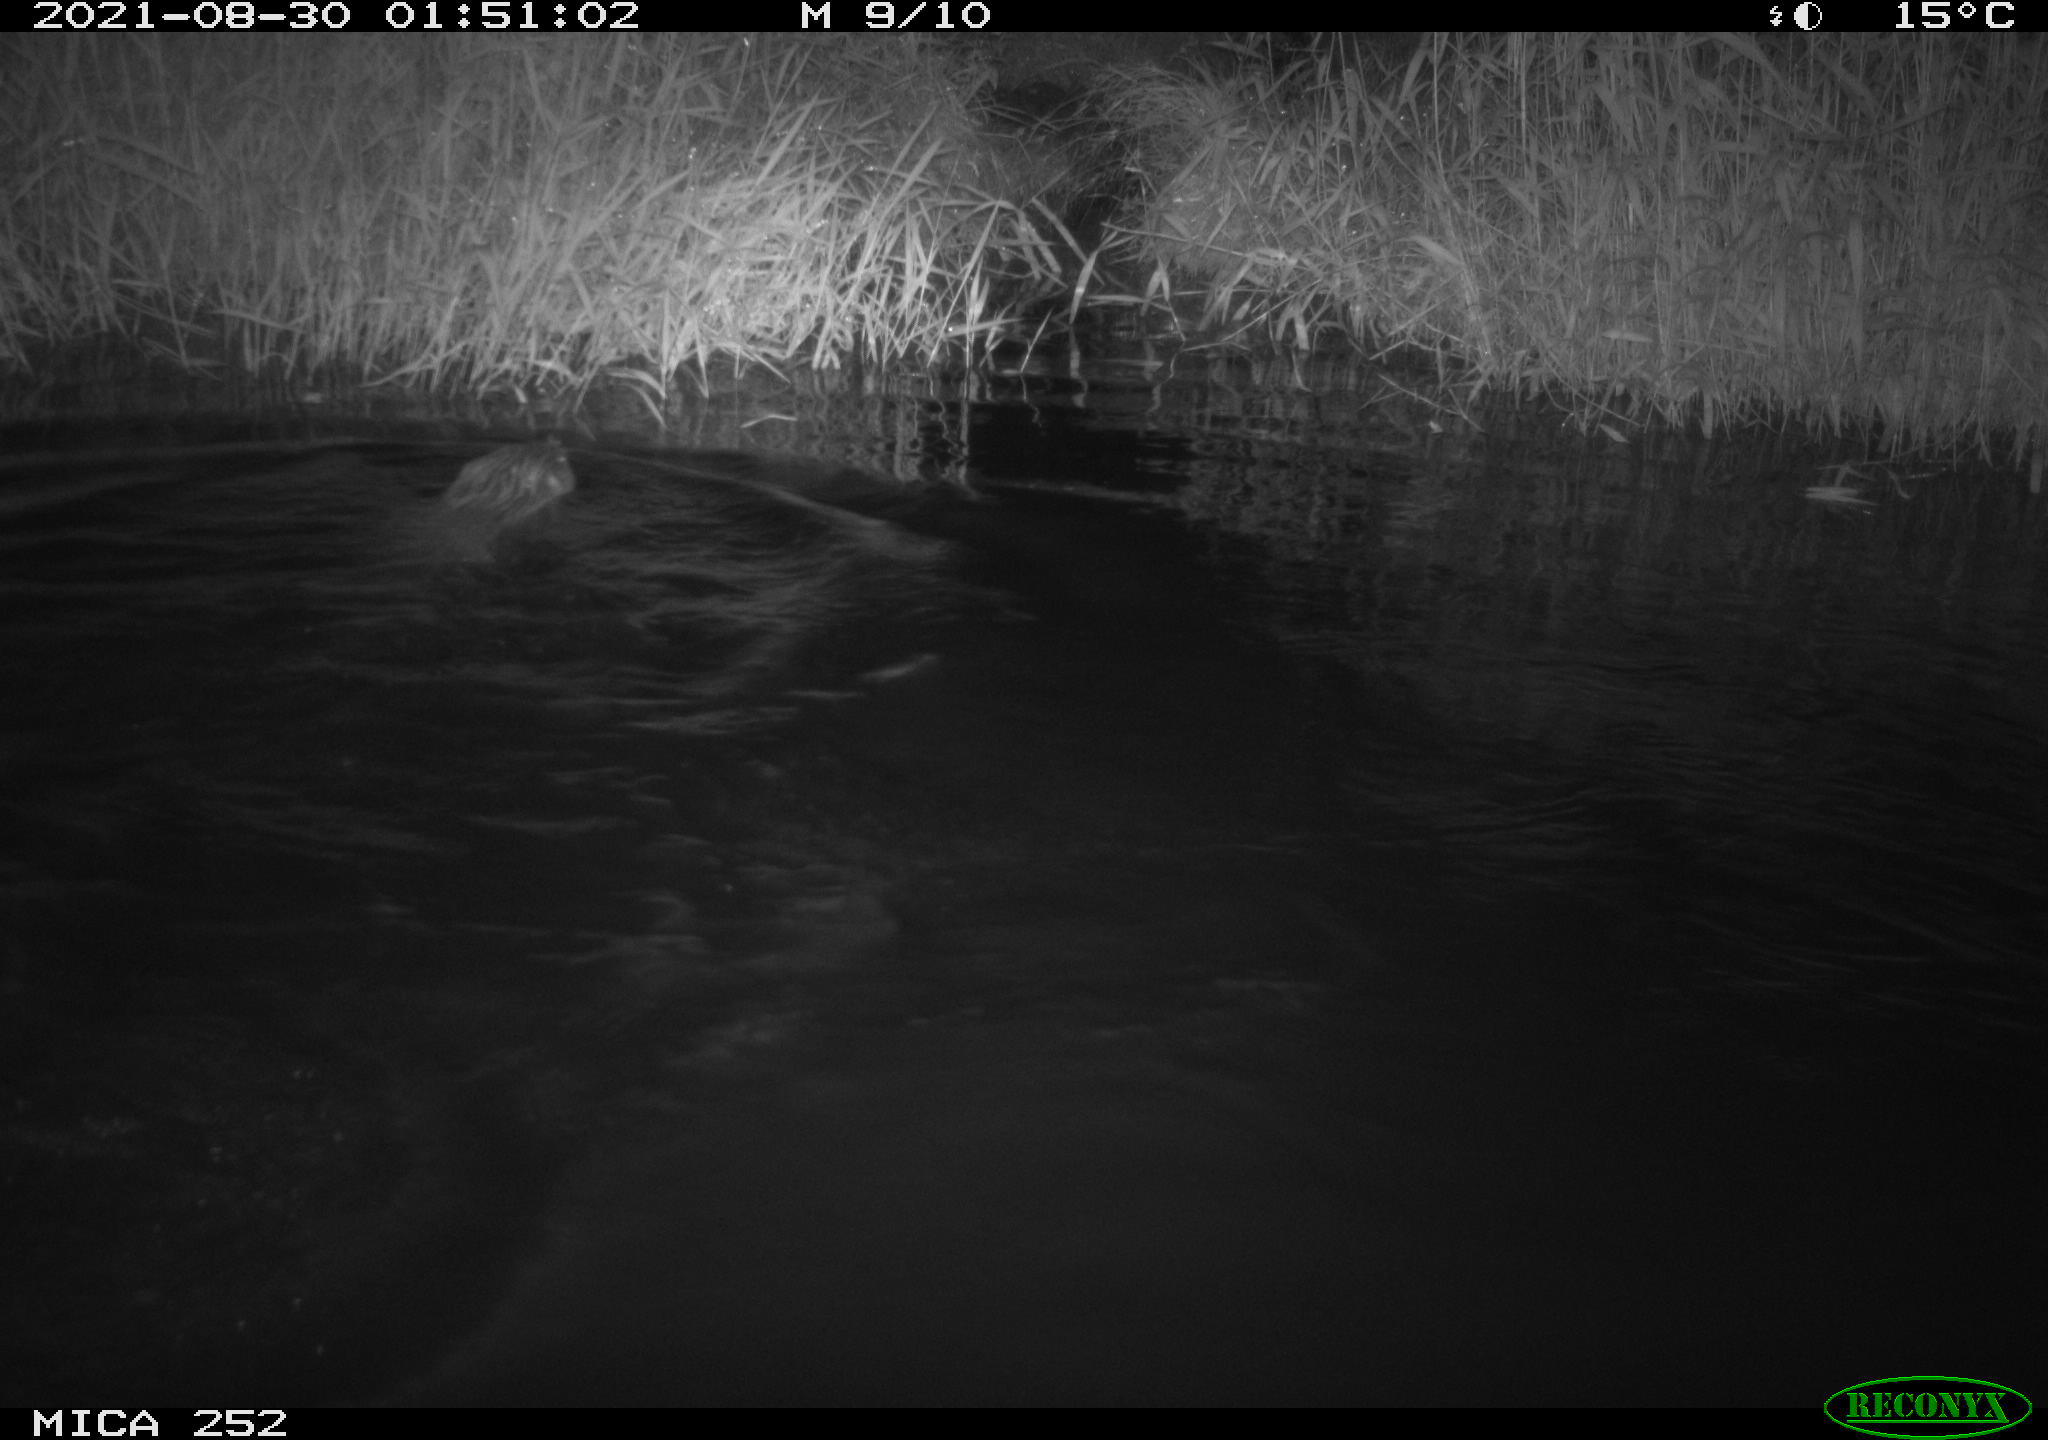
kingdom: Animalia
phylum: Chordata
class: Mammalia
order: Rodentia
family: Castoridae
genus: Castor
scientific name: Castor fiber
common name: Eurasian beaver
